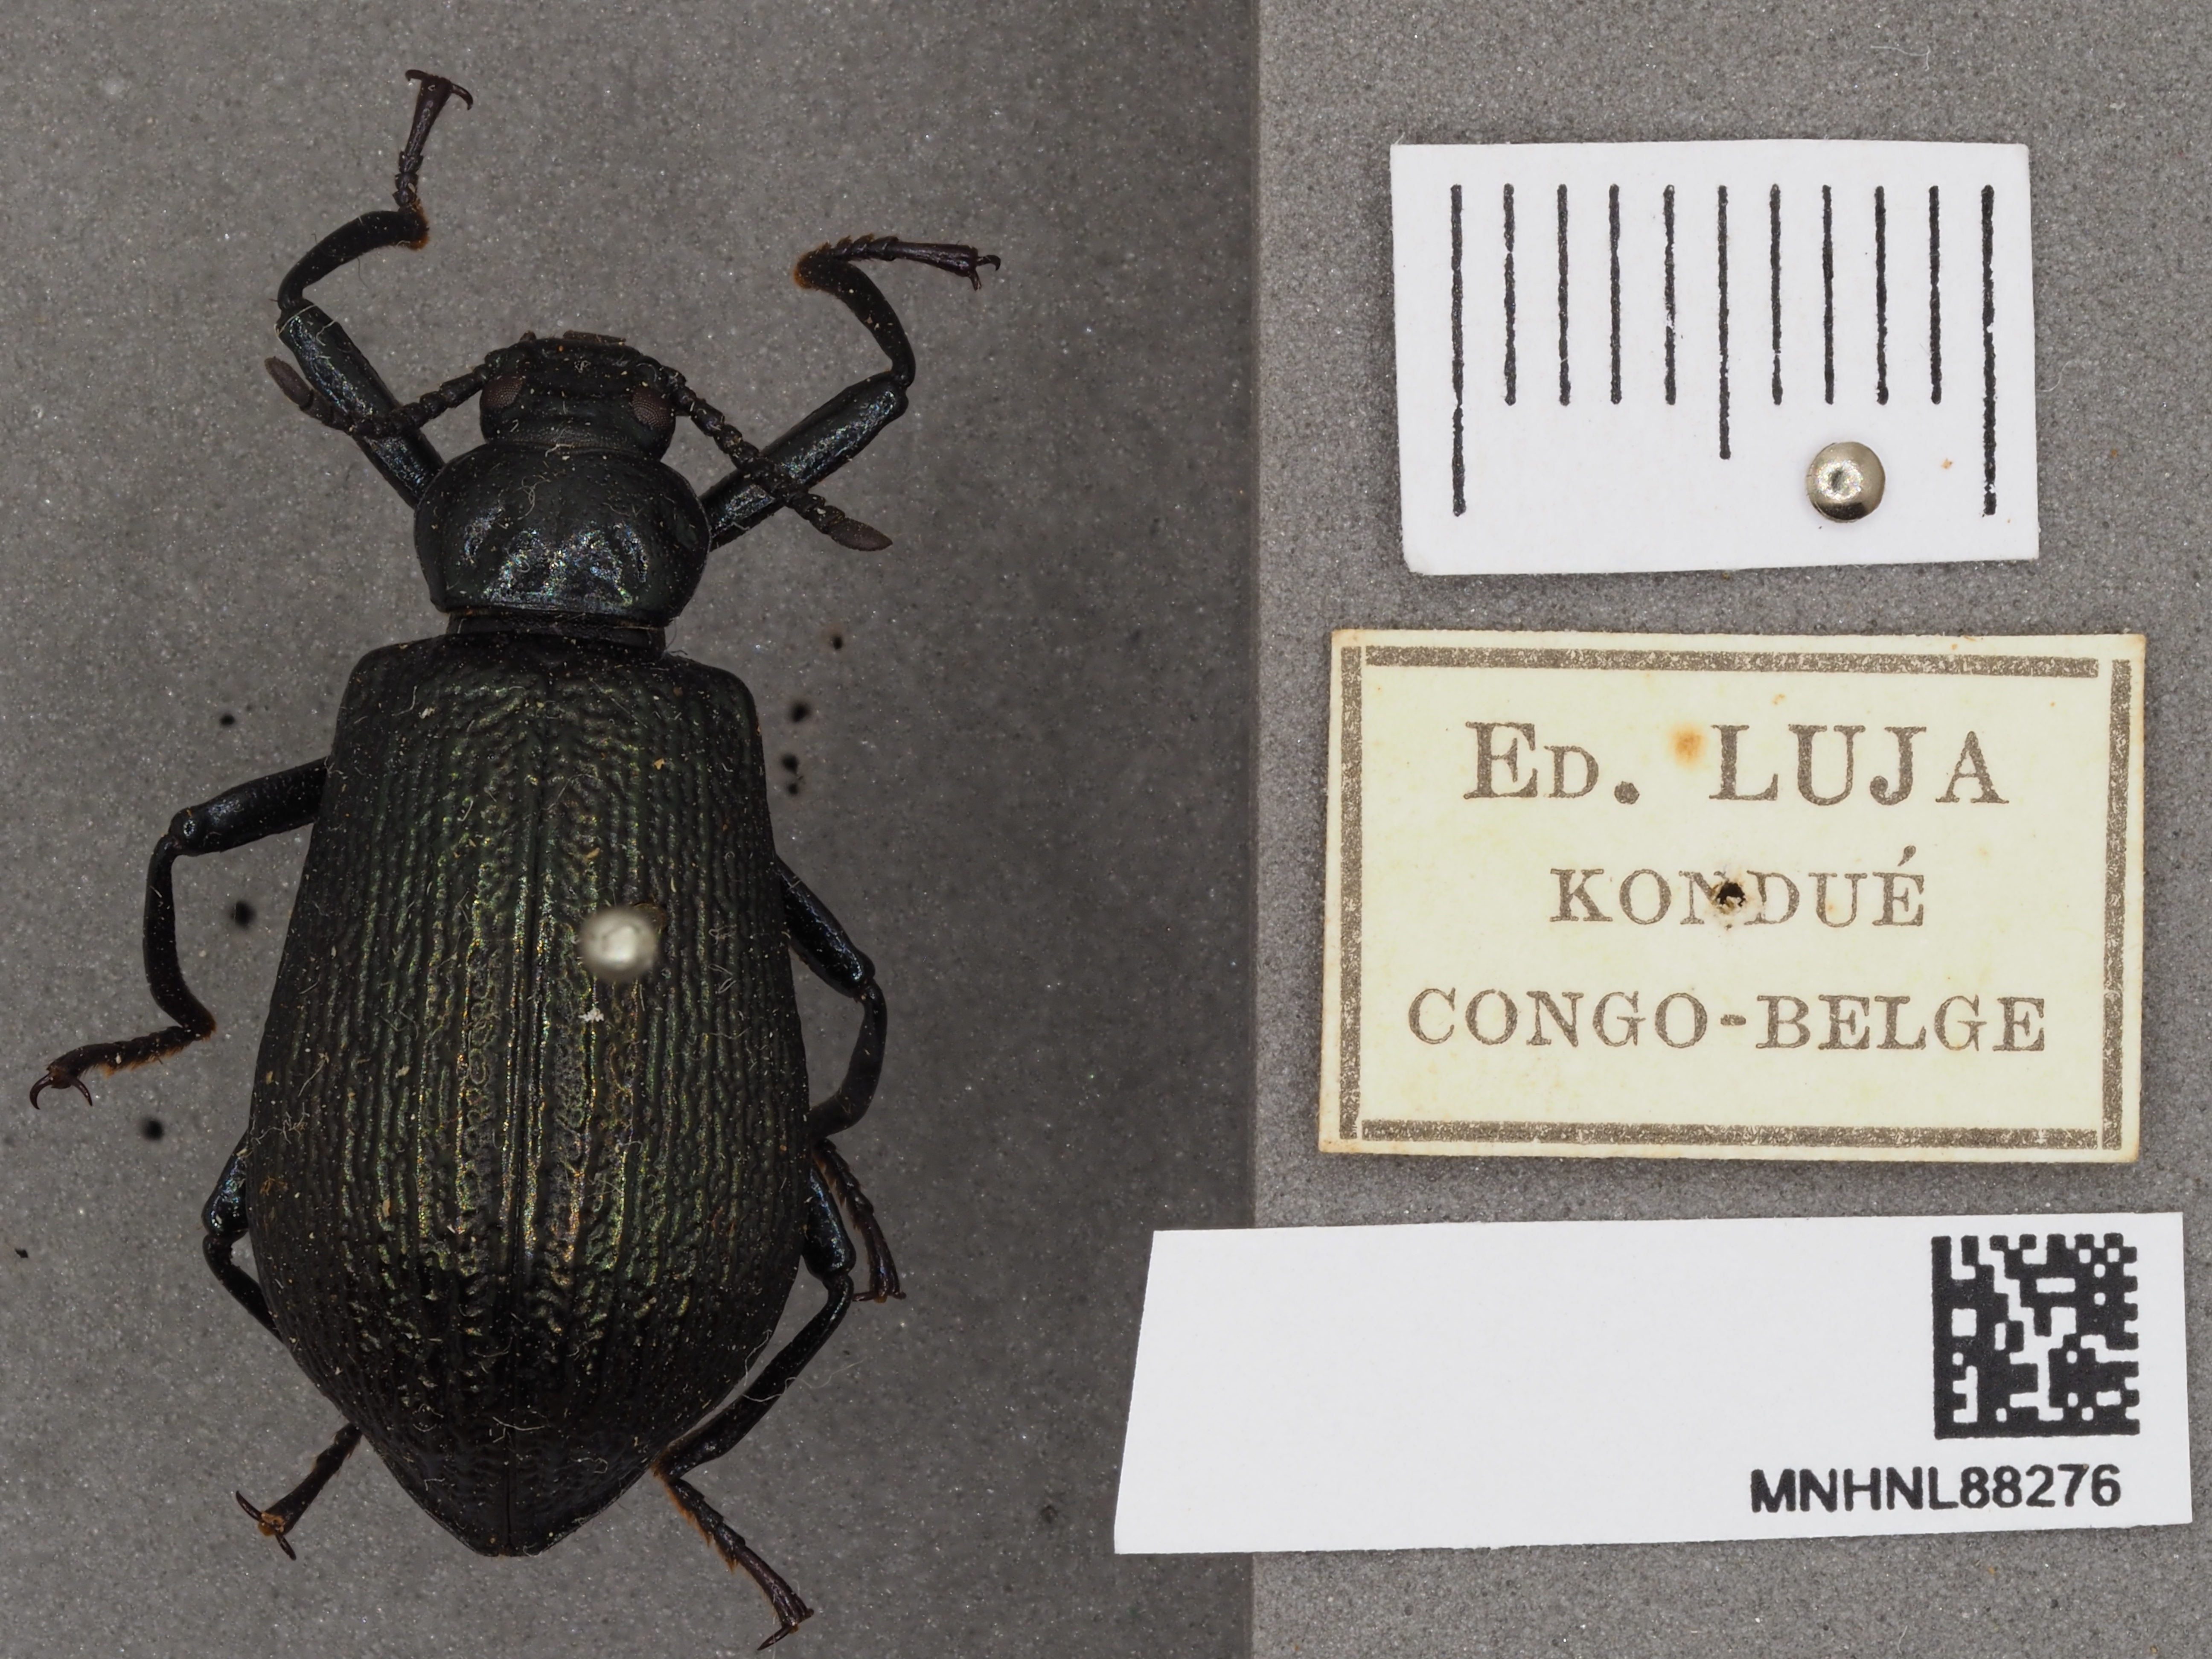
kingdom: Animalia
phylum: Arthropoda
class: Insecta
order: Coleoptera
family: Carabidae
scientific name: Carabidae
